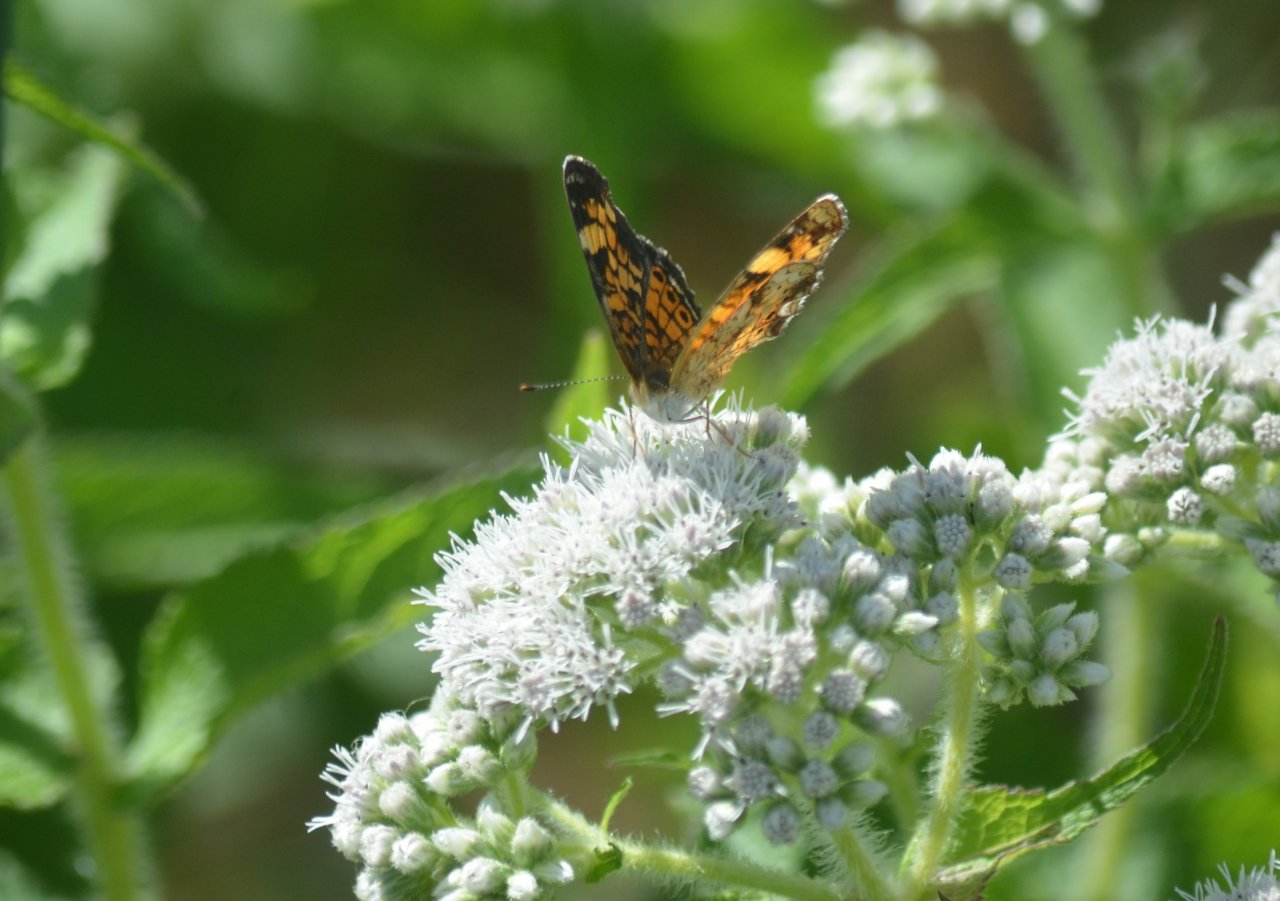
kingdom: Animalia
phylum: Arthropoda
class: Insecta
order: Lepidoptera
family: Nymphalidae
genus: Phyciodes
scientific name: Phyciodes tharos
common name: Pearl Crescent
